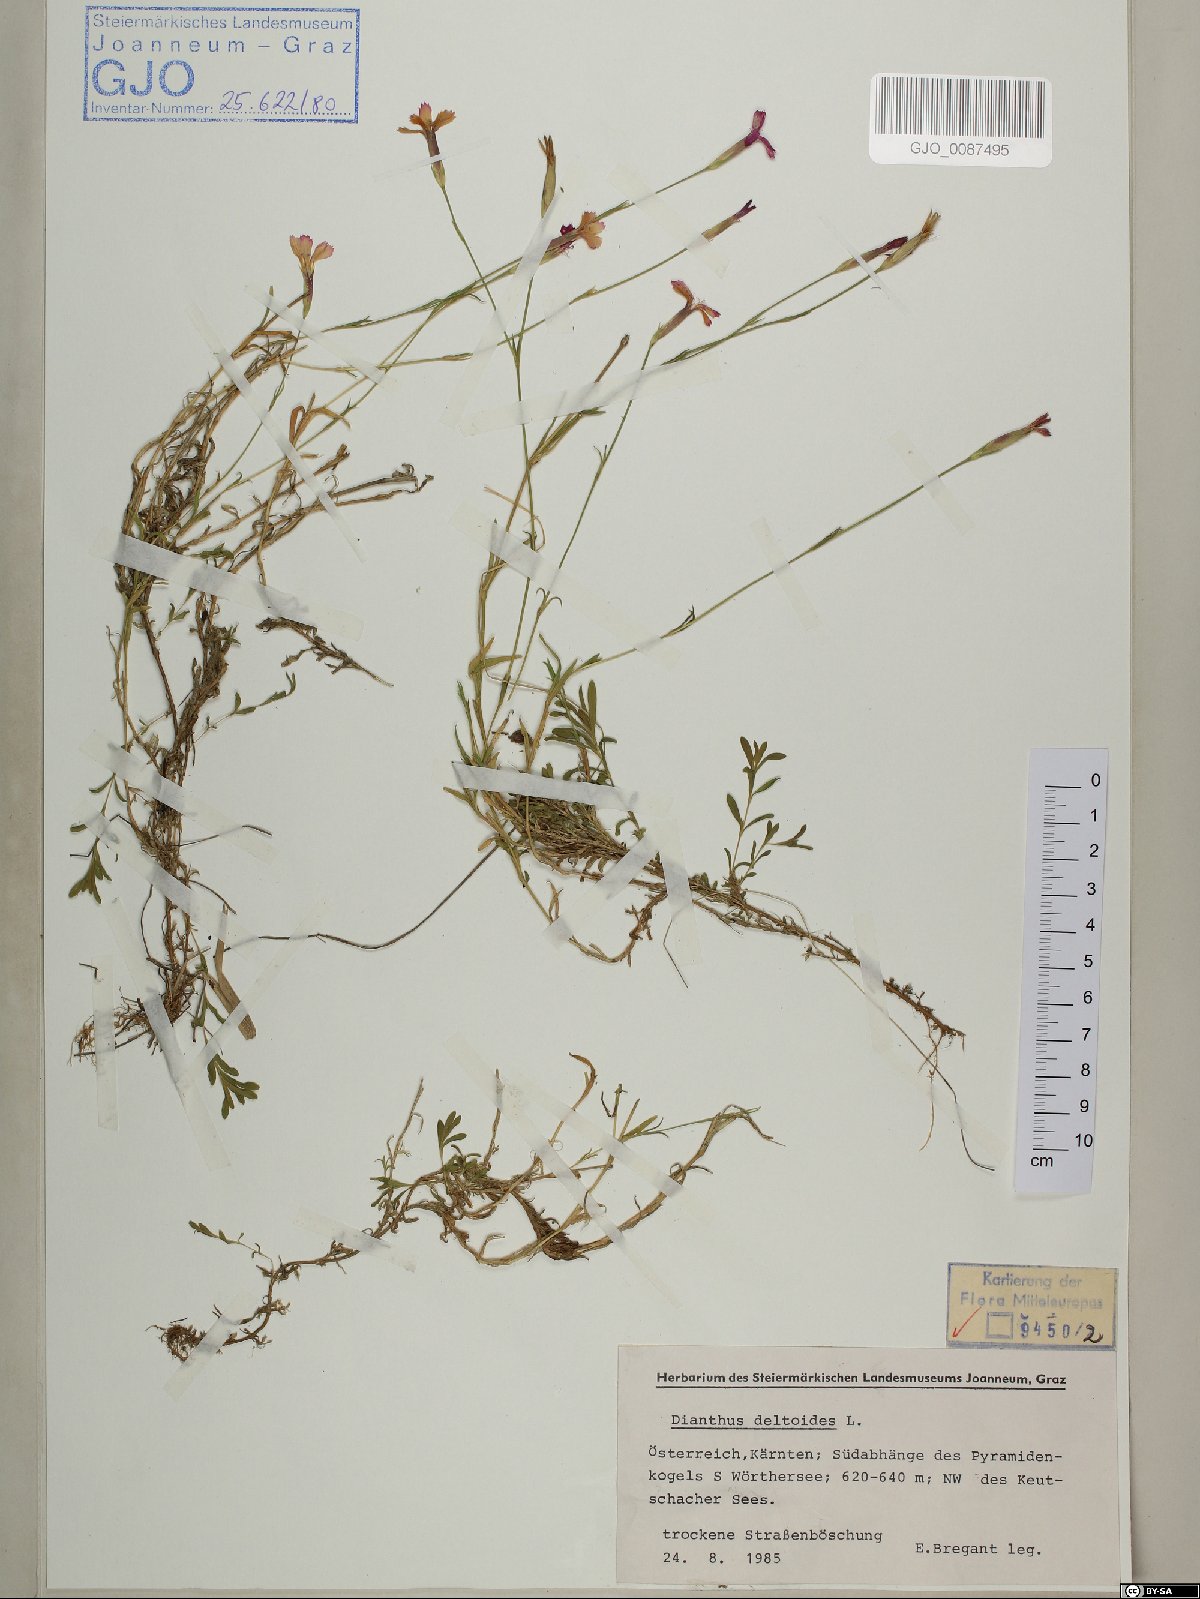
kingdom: Plantae
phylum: Tracheophyta
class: Magnoliopsida
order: Caryophyllales
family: Caryophyllaceae
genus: Dianthus
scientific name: Dianthus deltoides
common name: Maiden pink
